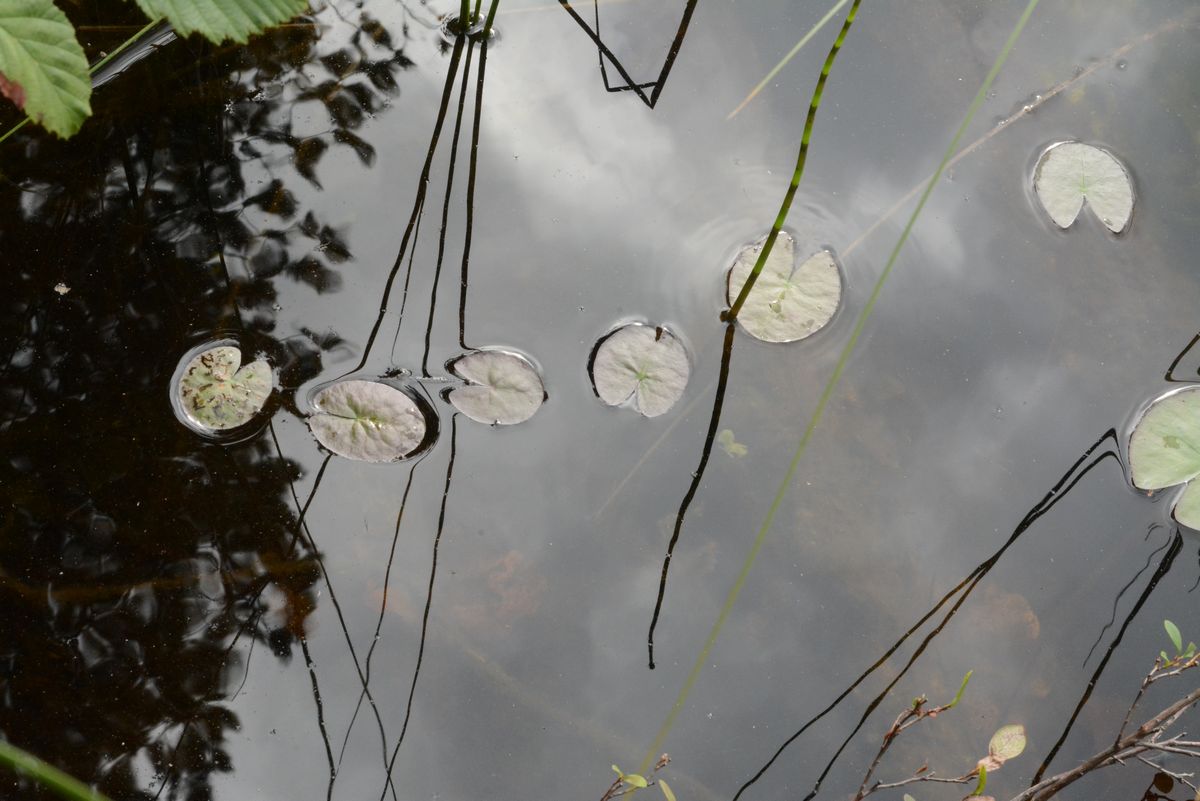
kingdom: Plantae
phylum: Tracheophyta
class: Magnoliopsida
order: Nymphaeales
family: Nymphaeaceae
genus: Nuphar
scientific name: Nuphar lutea
